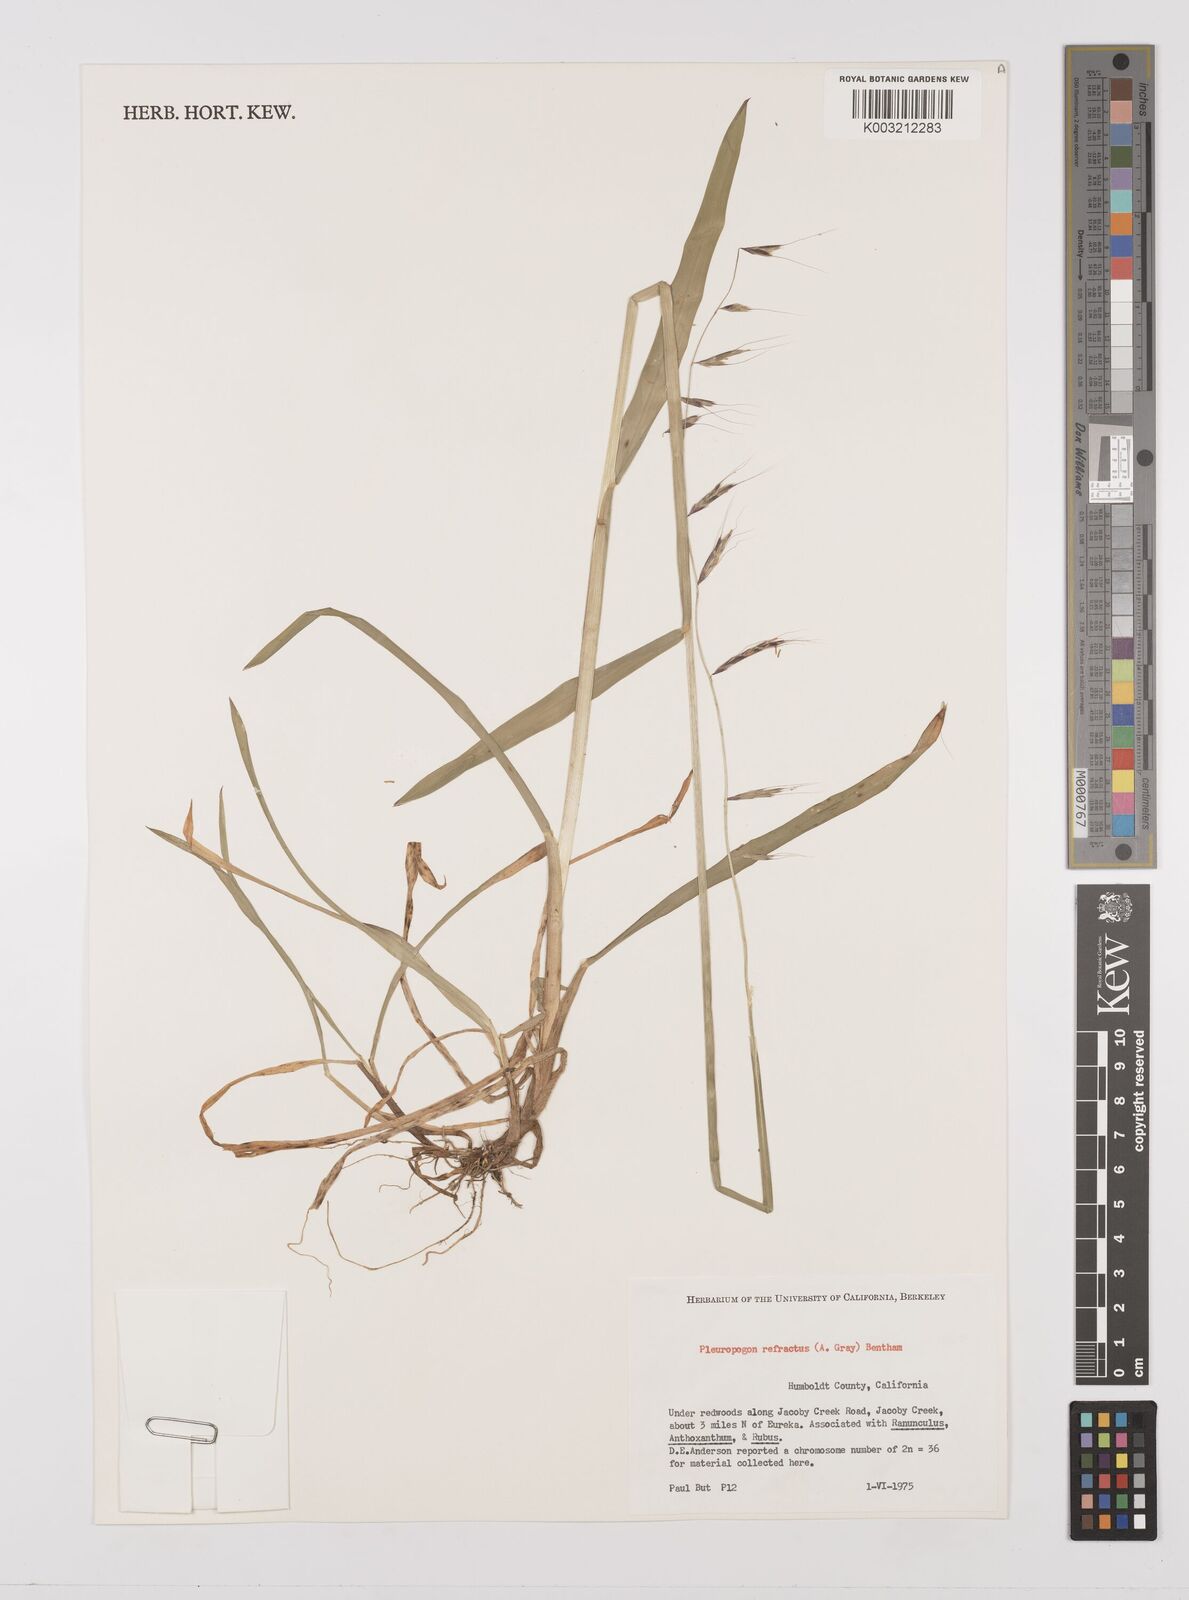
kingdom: Plantae
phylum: Tracheophyta
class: Liliopsida
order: Poales
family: Poaceae
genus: Pleuropogon
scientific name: Pleuropogon refractus
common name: Nodding false semaphoregrass
